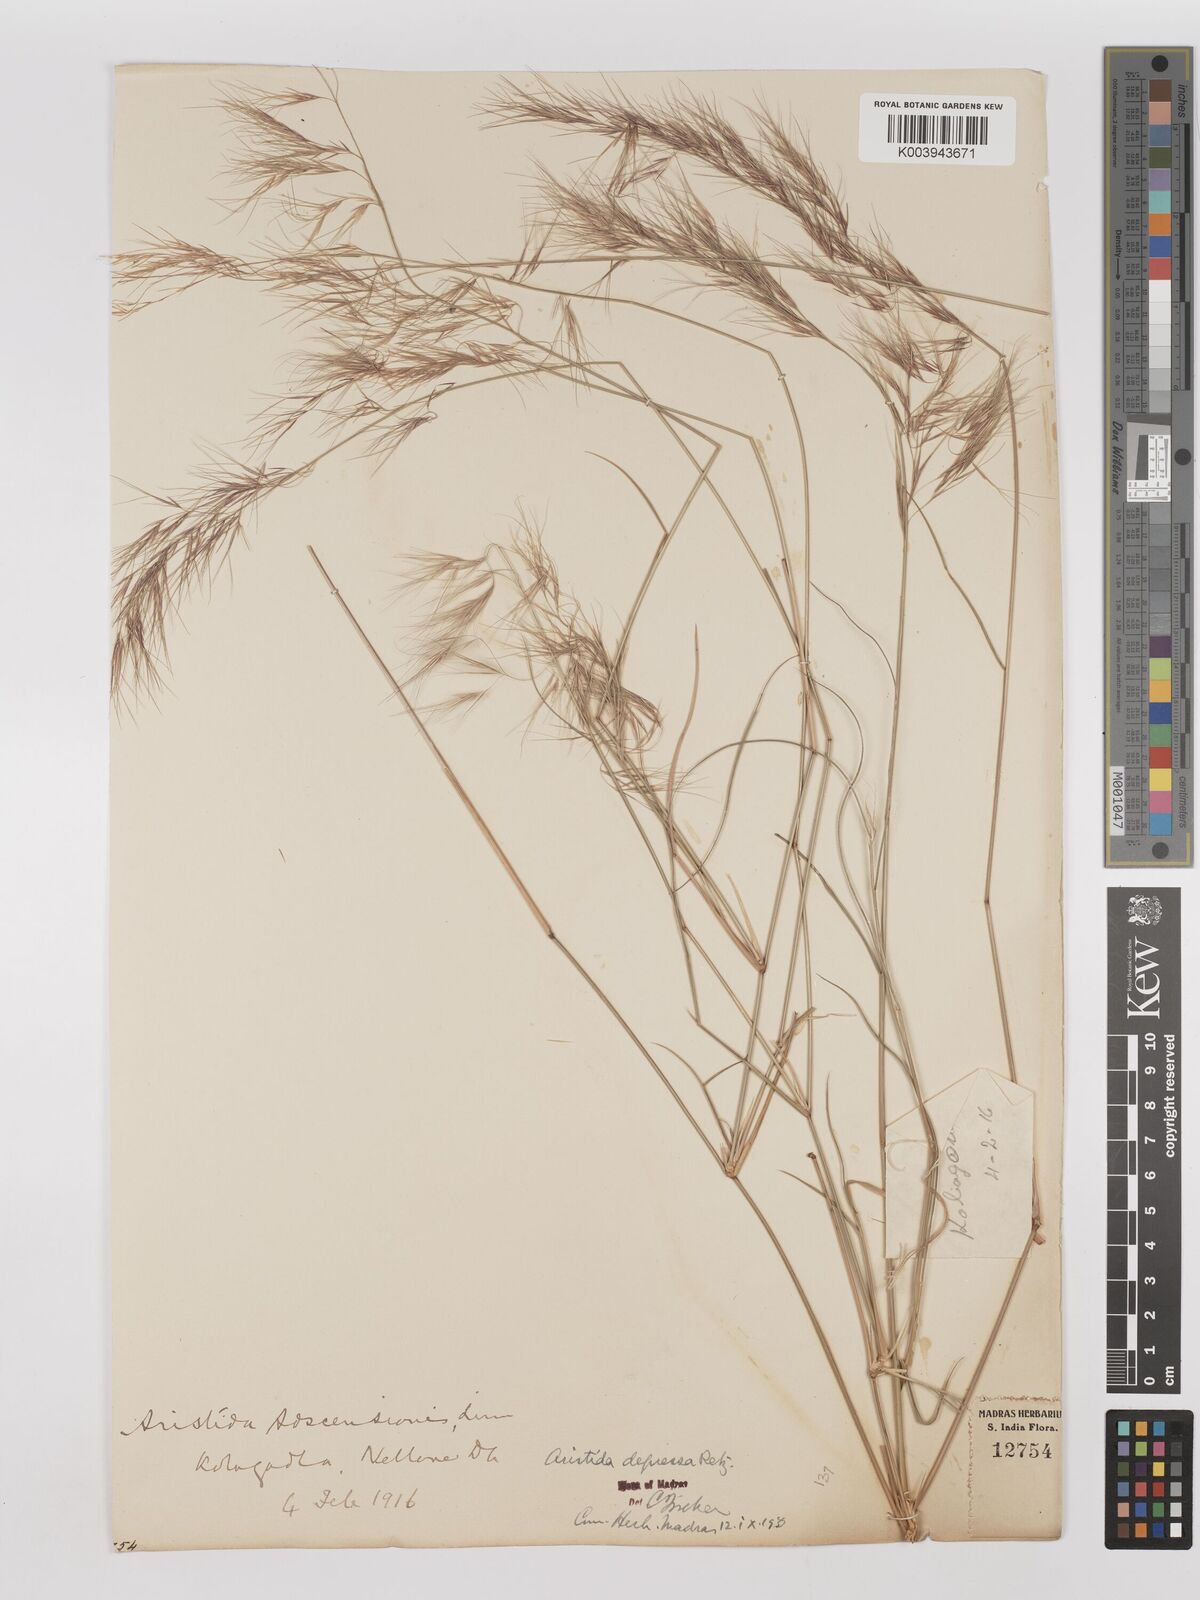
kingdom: Plantae
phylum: Tracheophyta
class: Liliopsida
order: Poales
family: Poaceae
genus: Aristida
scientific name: Aristida adscensionis
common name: Sixweeks threeawn
